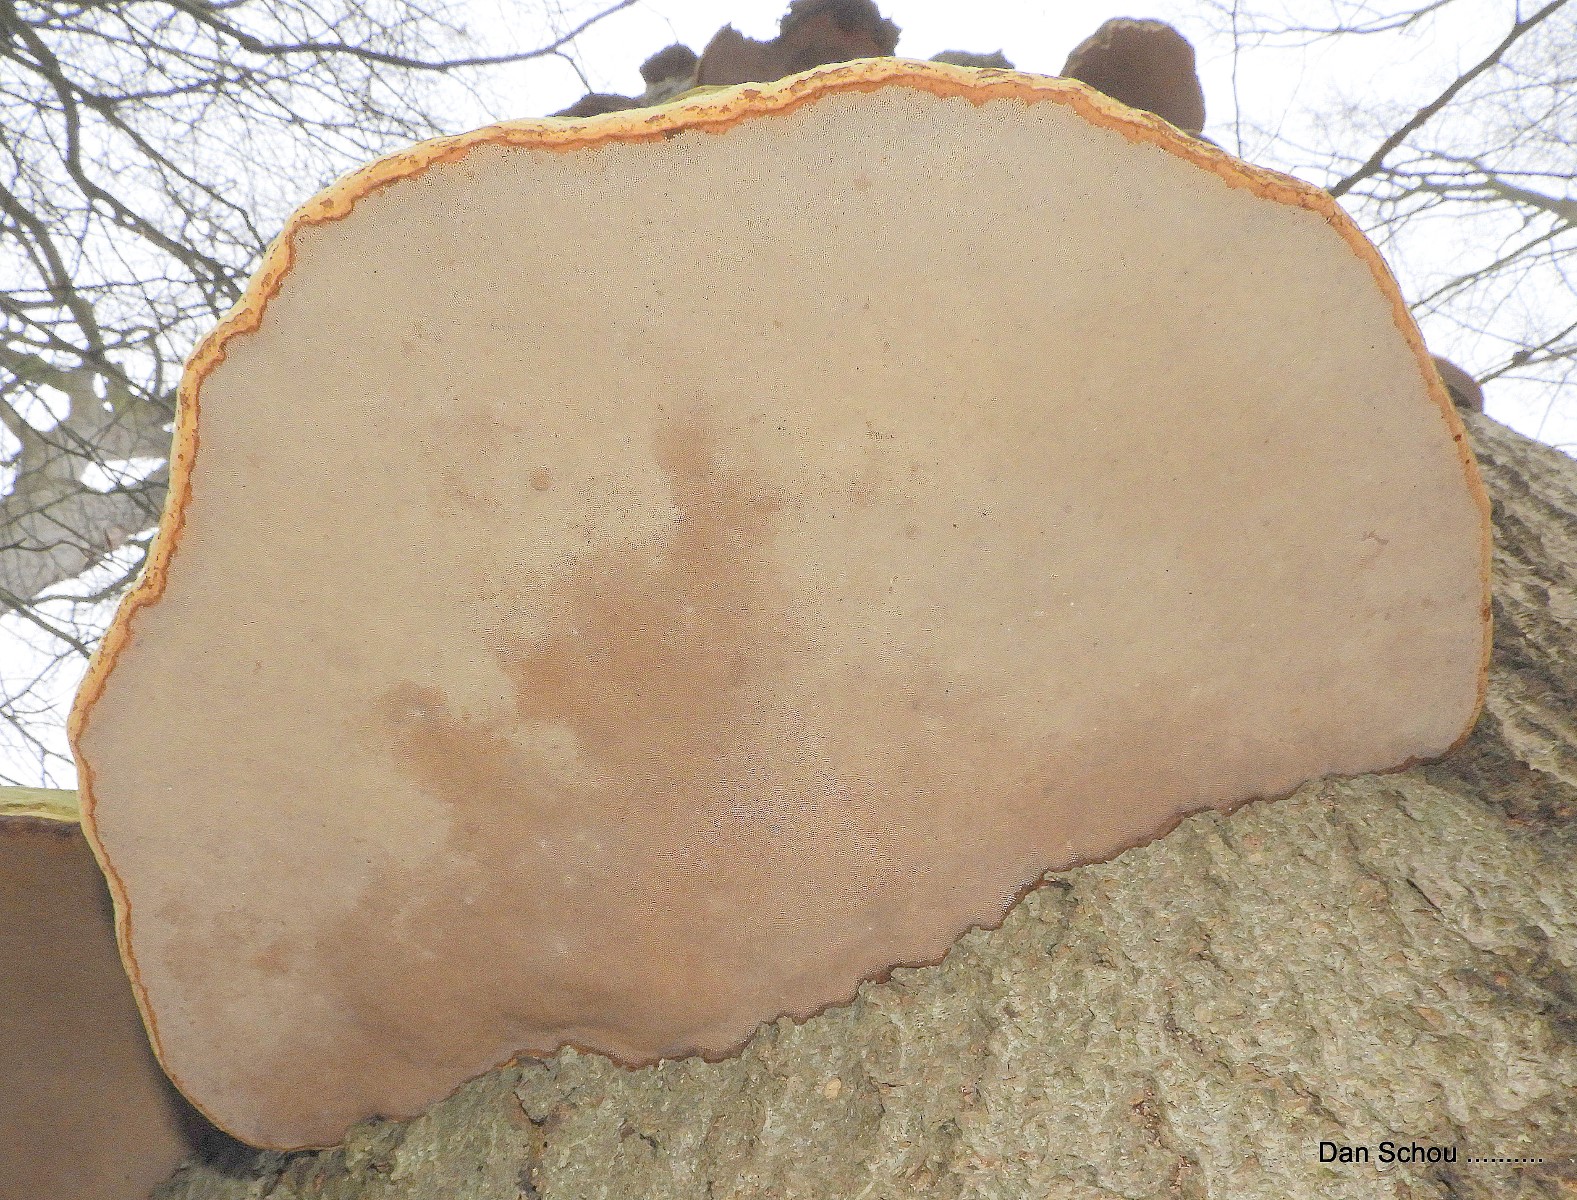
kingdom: Fungi
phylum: Basidiomycota
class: Agaricomycetes
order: Polyporales
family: Polyporaceae
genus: Fomes
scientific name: Fomes fomentarius
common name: tøndersvamp
